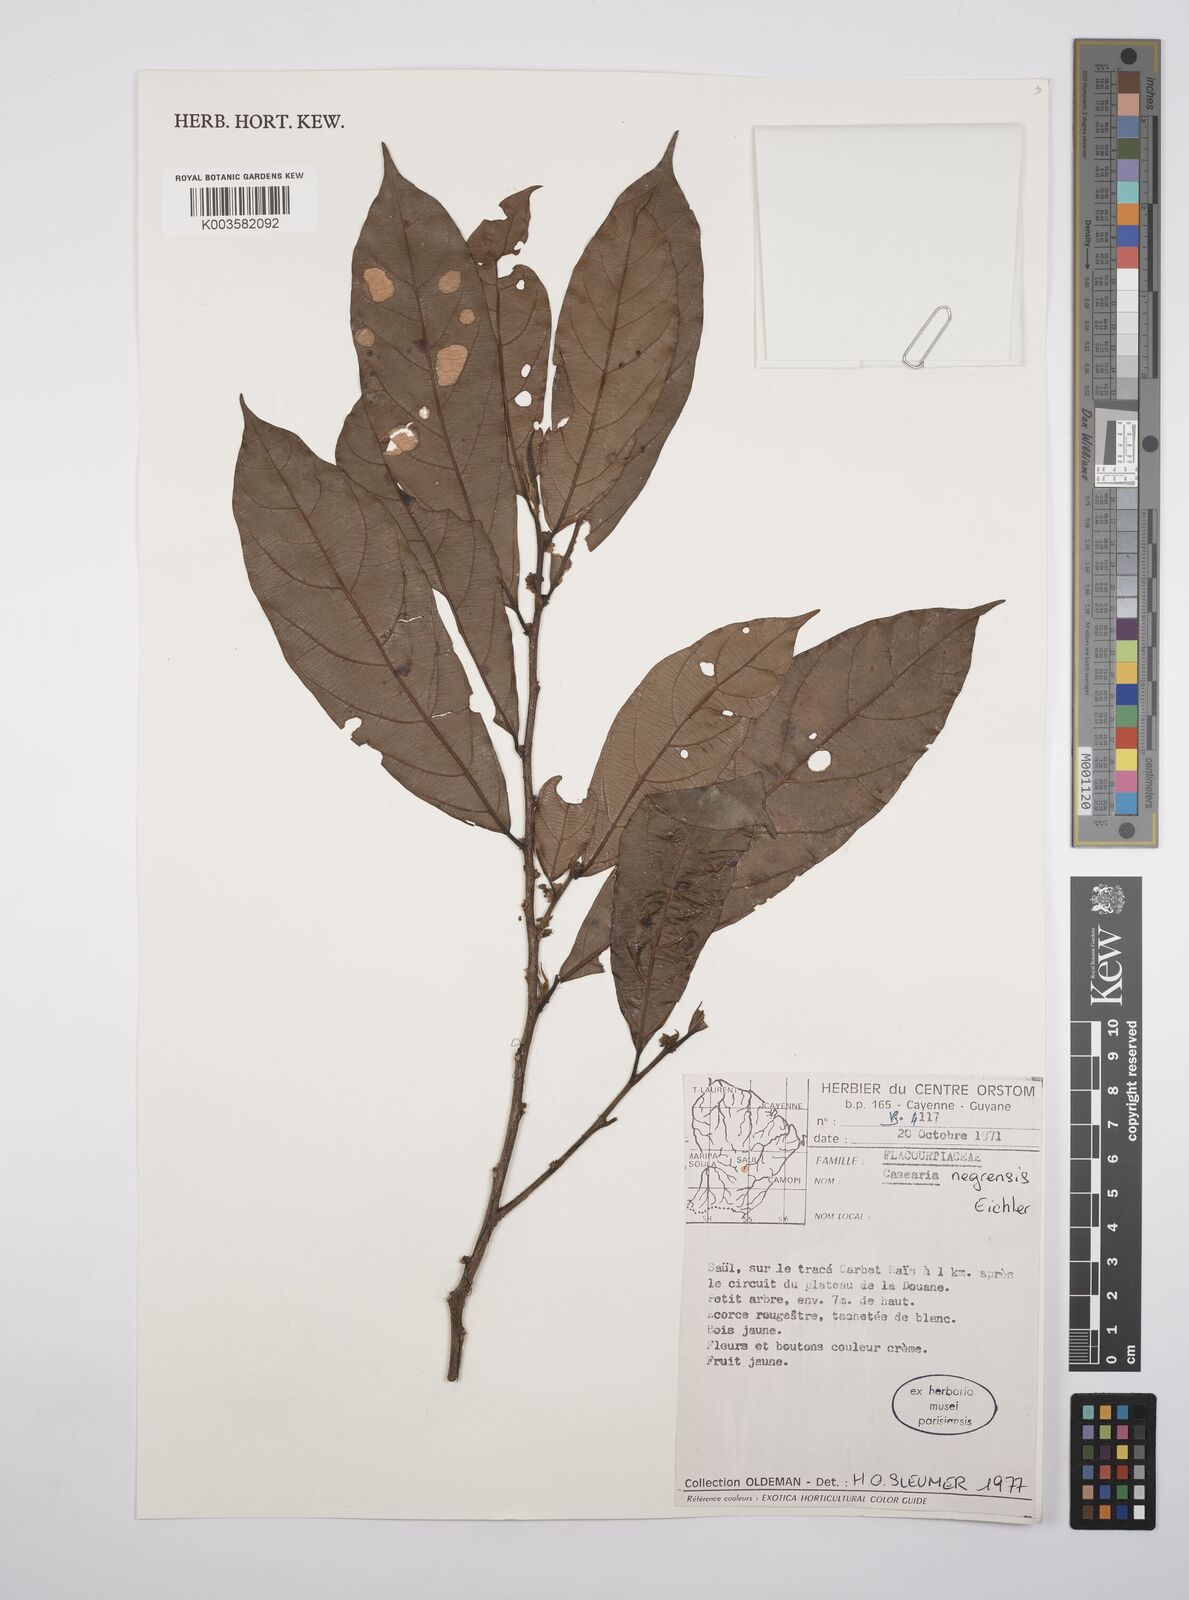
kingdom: Plantae
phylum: Tracheophyta
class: Magnoliopsida
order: Malpighiales
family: Salicaceae
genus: Casearia
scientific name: Casearia negrensis
